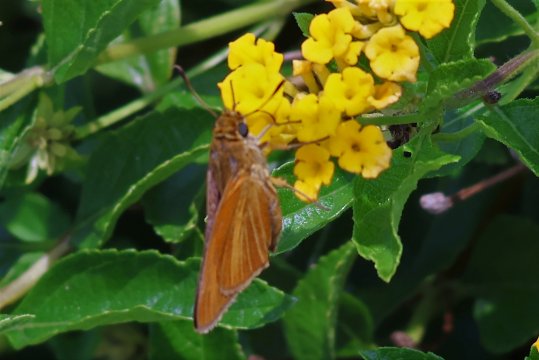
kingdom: Animalia
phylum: Arthropoda
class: Insecta
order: Lepidoptera
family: Hesperiidae
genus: Euphyes
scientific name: Euphyes dion
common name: Dion Skipper
